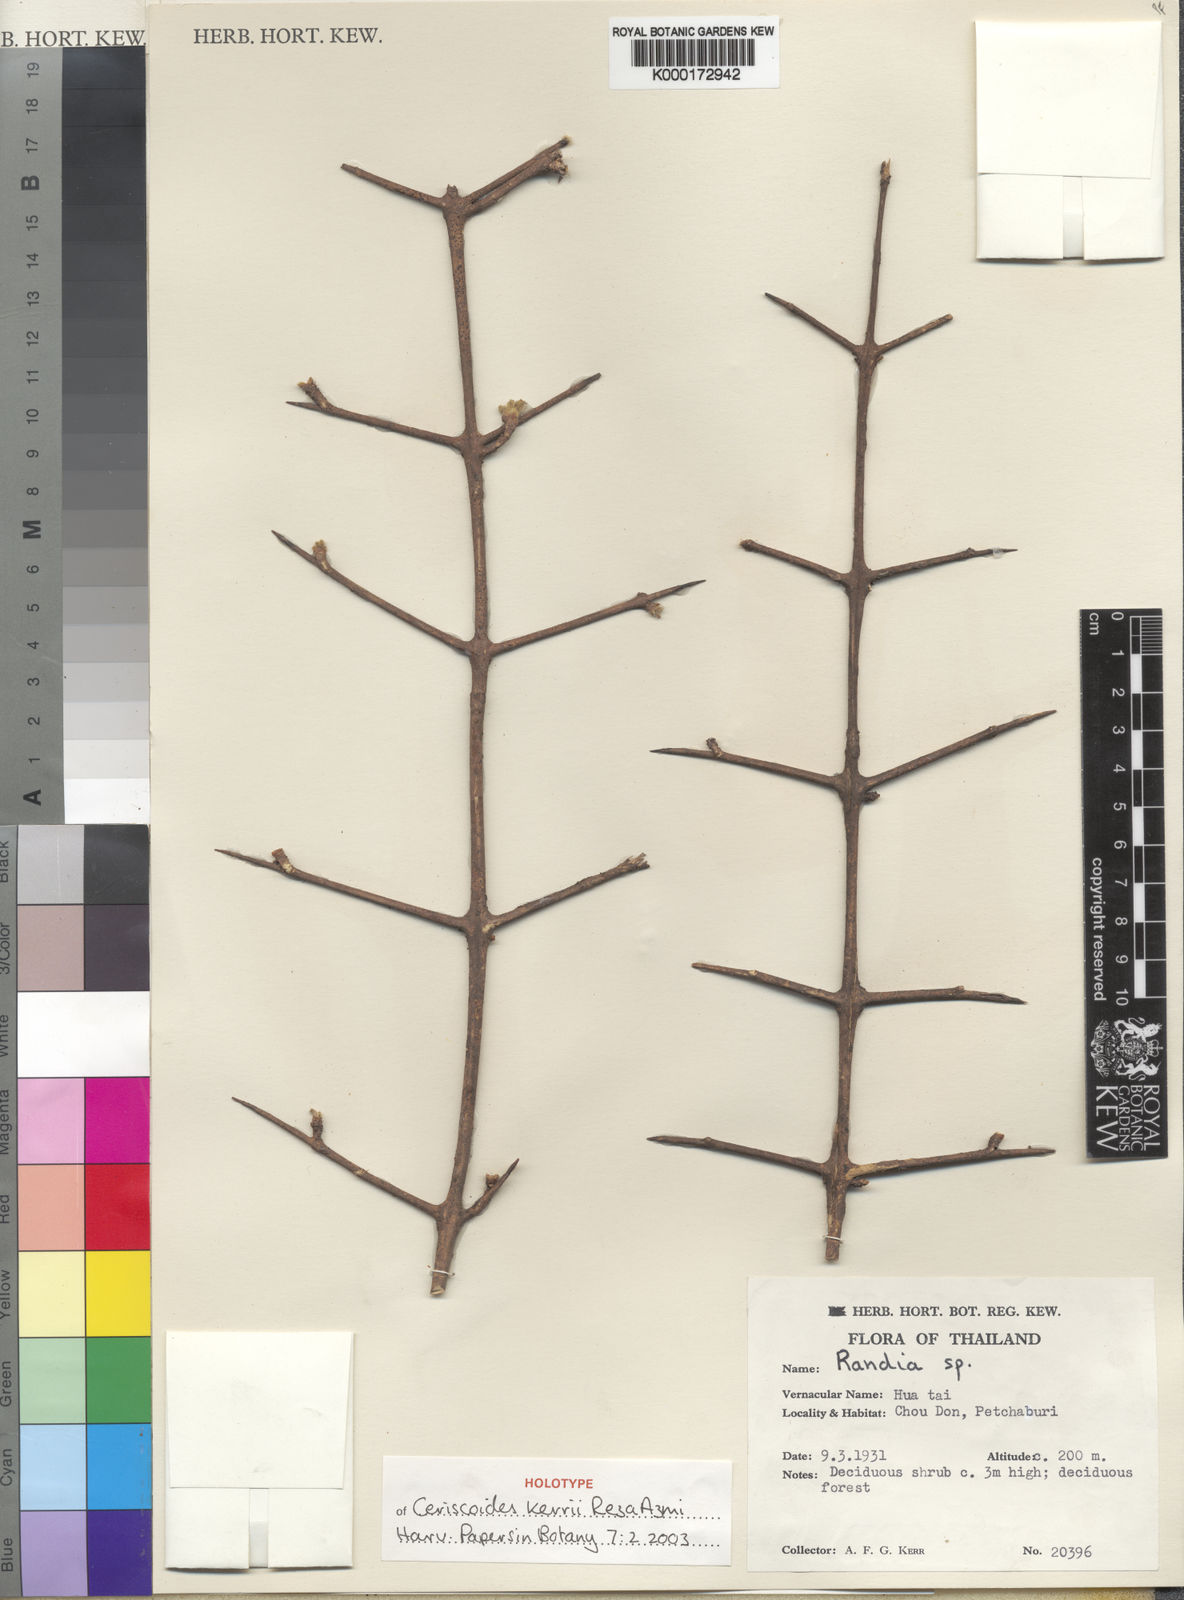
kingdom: Plantae
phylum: Tracheophyta
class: Magnoliopsida
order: Gentianales
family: Rubiaceae
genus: Ceriscoides
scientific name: Ceriscoides kerrii
